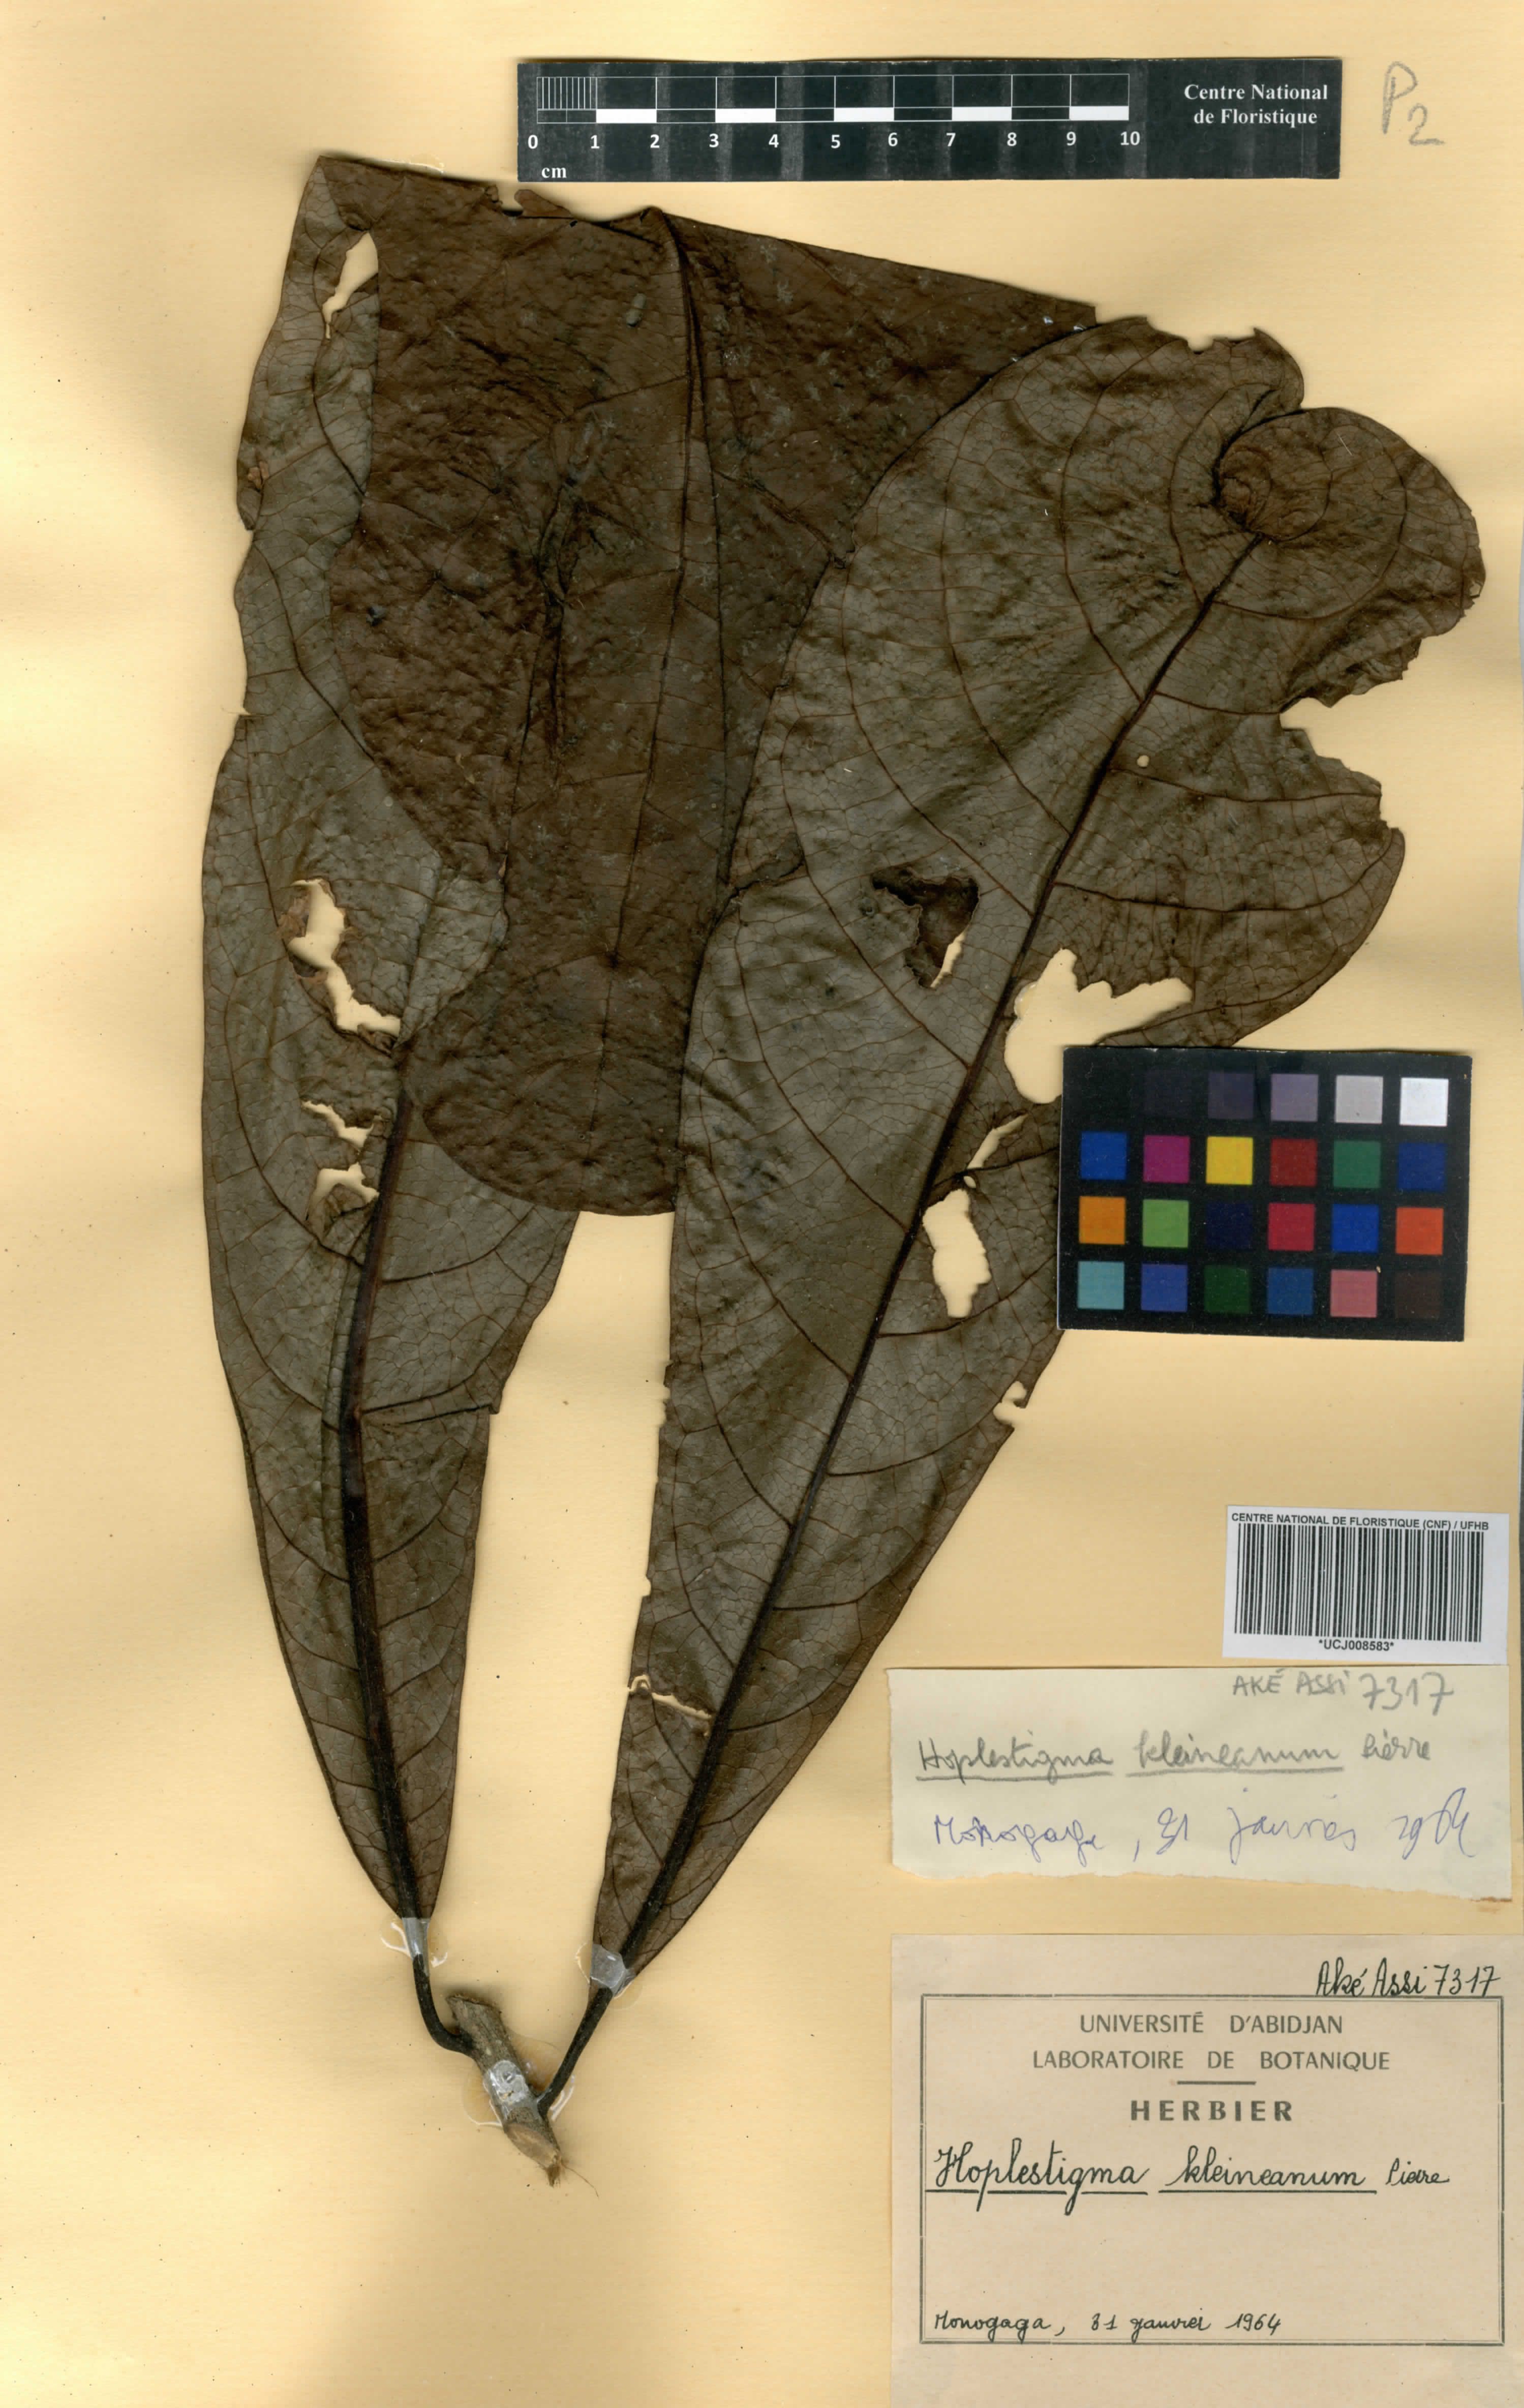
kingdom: Plantae
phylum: Tracheophyta
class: Magnoliopsida
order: Boraginales
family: Hoplestigmataceae
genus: Hoplestigma
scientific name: Hoplestigma klaineanum
